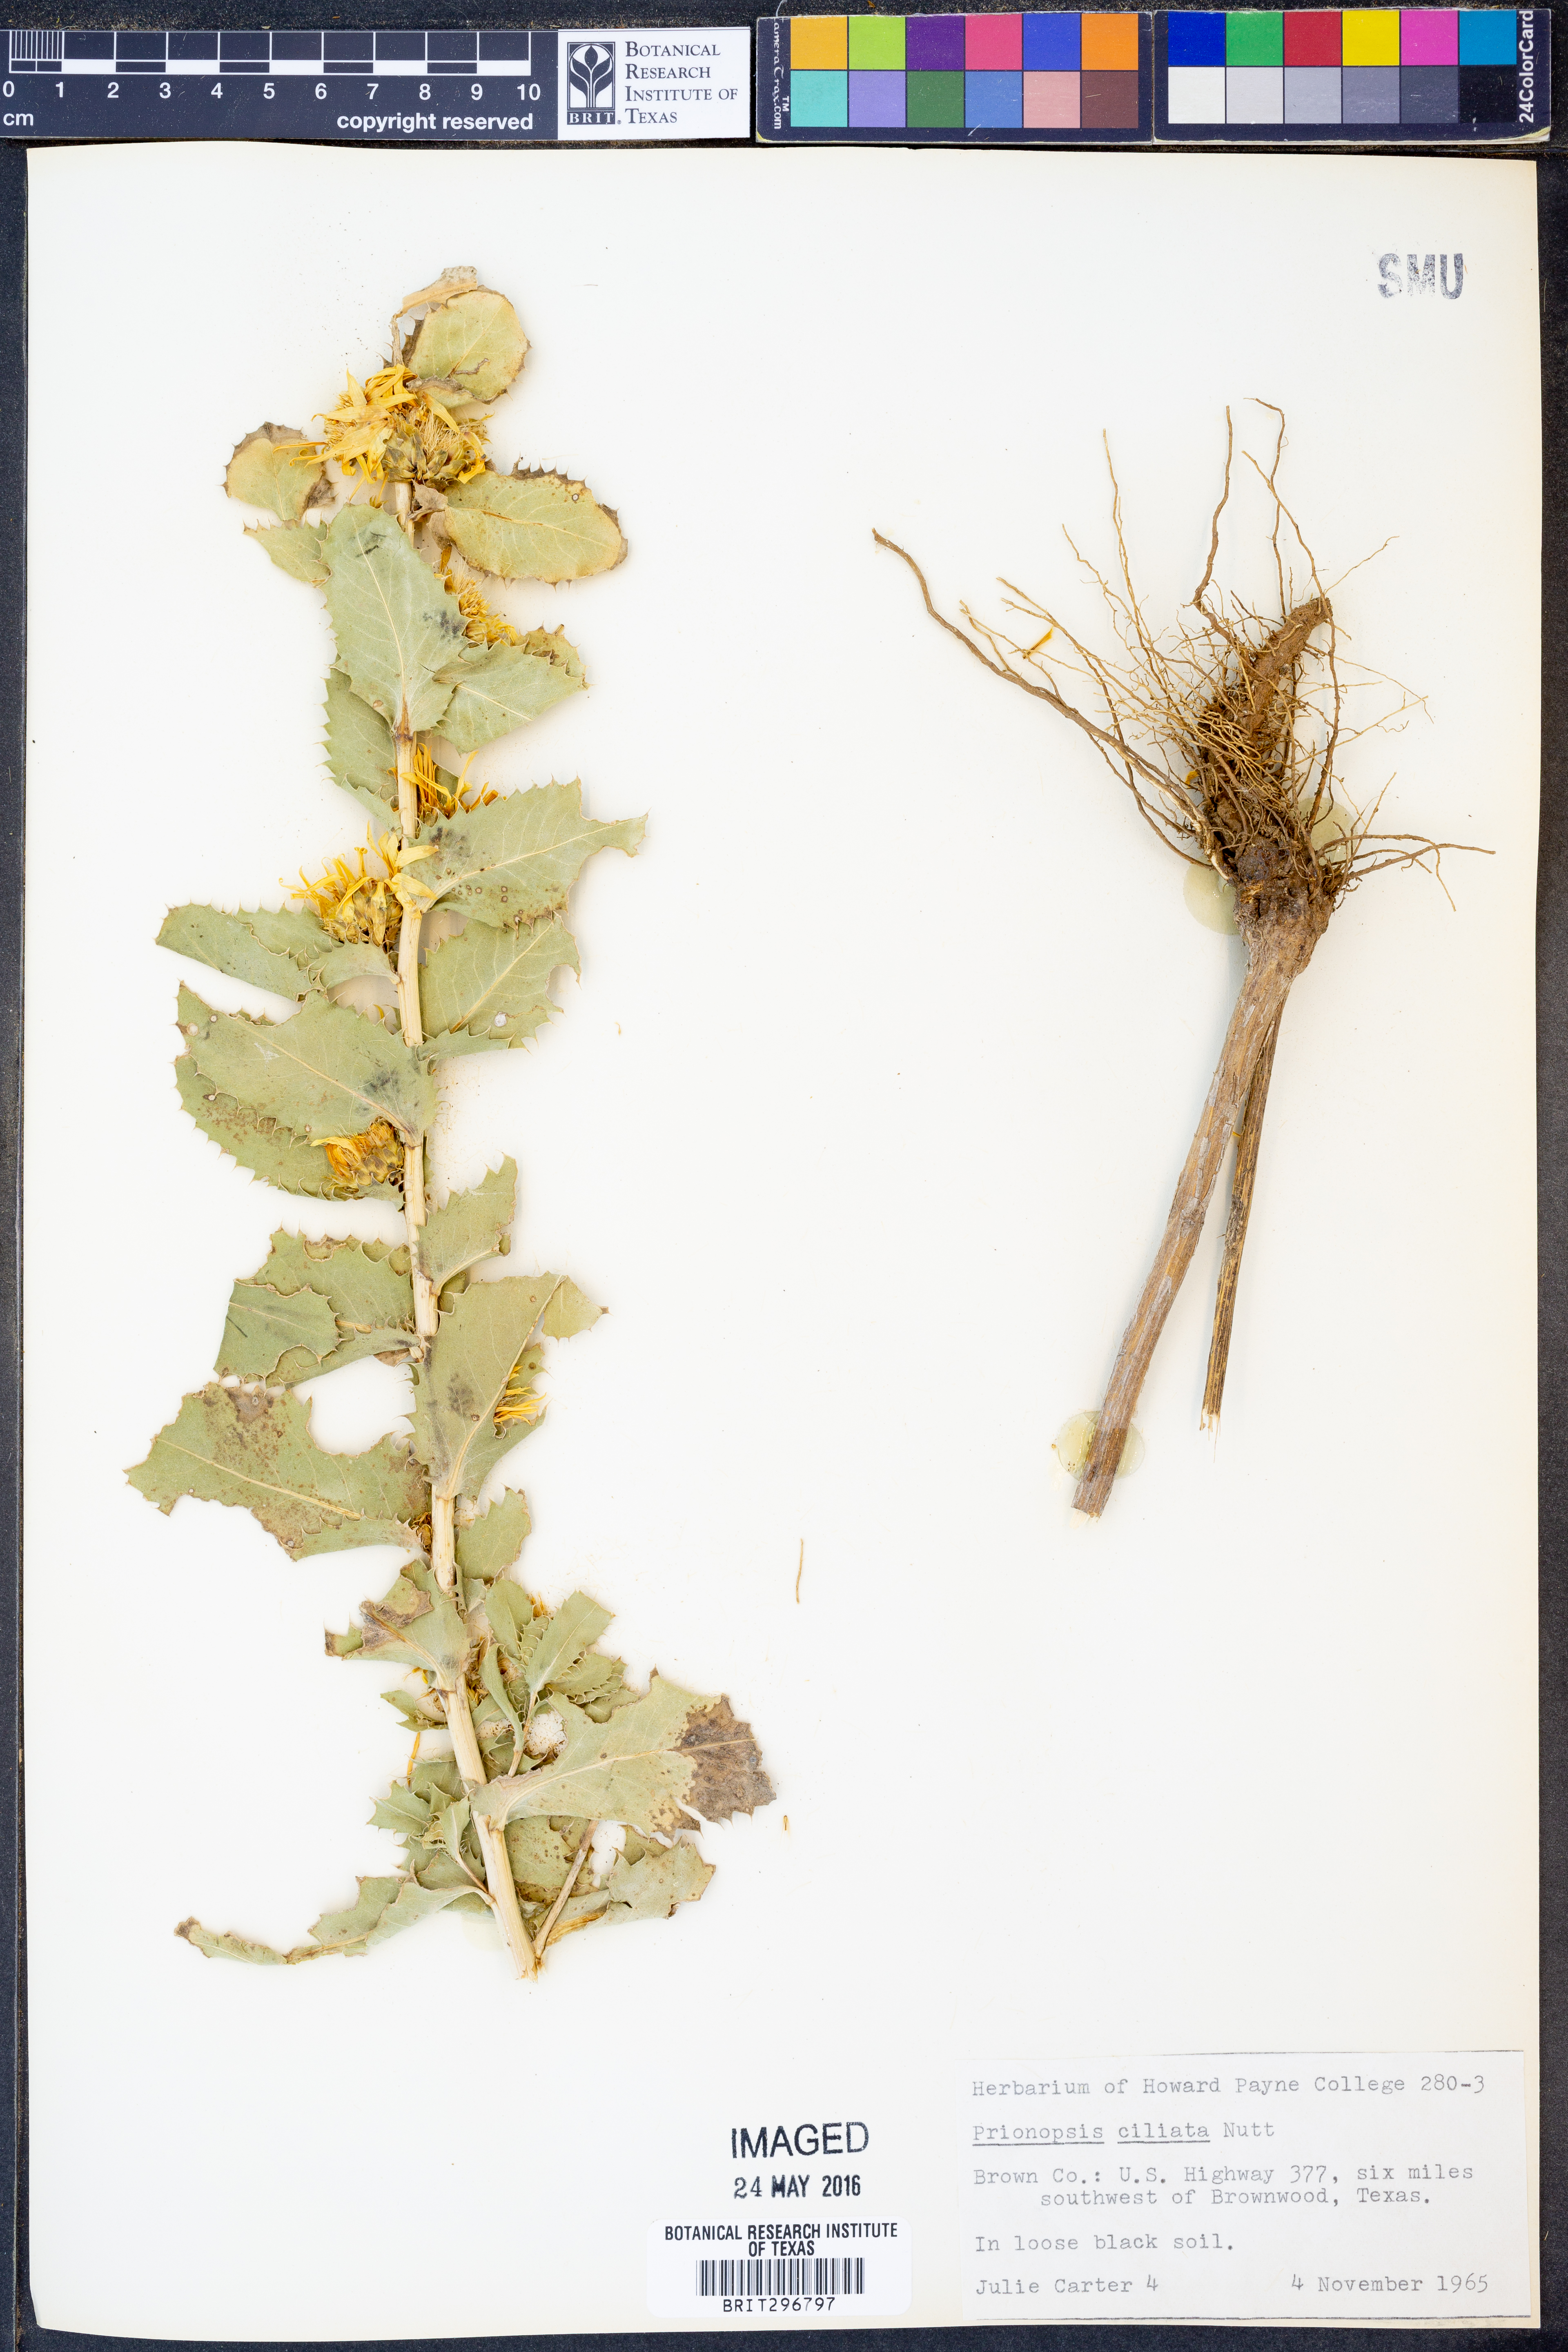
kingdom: Plantae
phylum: Tracheophyta
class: Magnoliopsida
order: Asterales
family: Asteraceae
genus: Grindelia
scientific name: Grindelia ciliata
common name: Goldenweed
